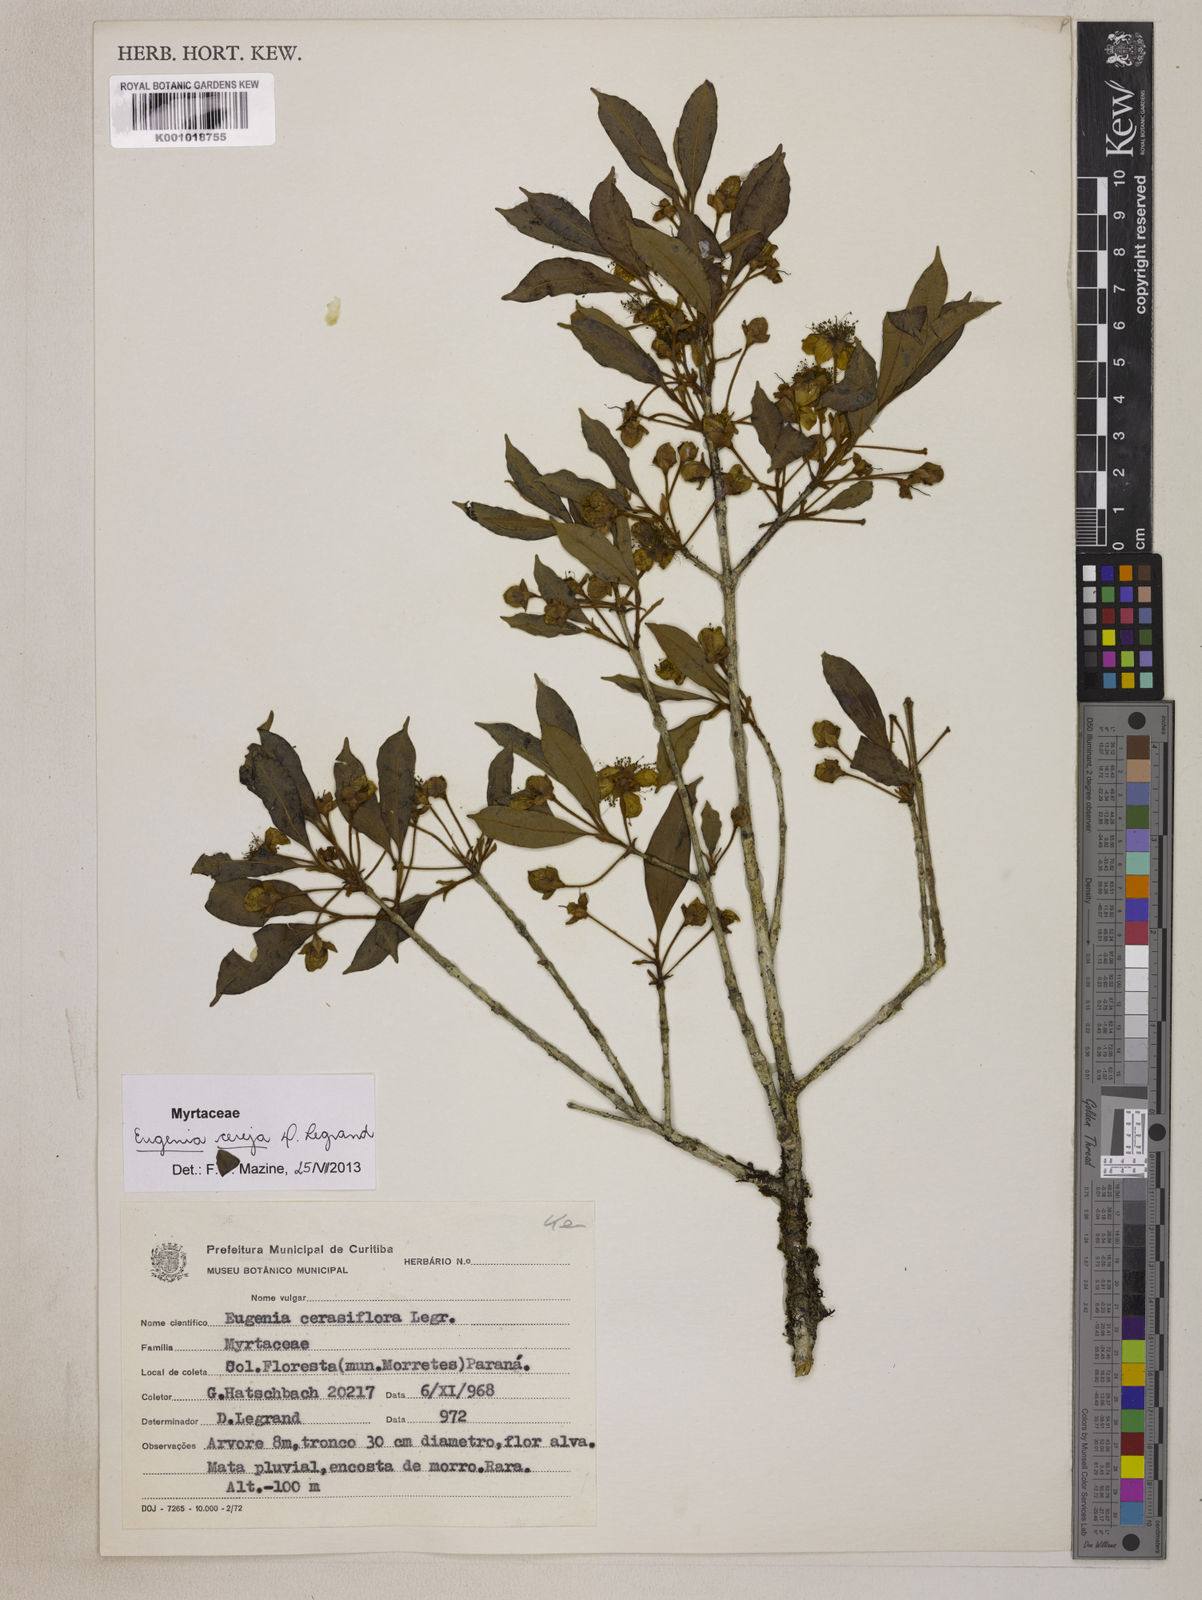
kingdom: Plantae
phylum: Tracheophyta
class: Magnoliopsida
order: Myrtales
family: Myrtaceae
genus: Eugenia
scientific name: Eugenia cereja
